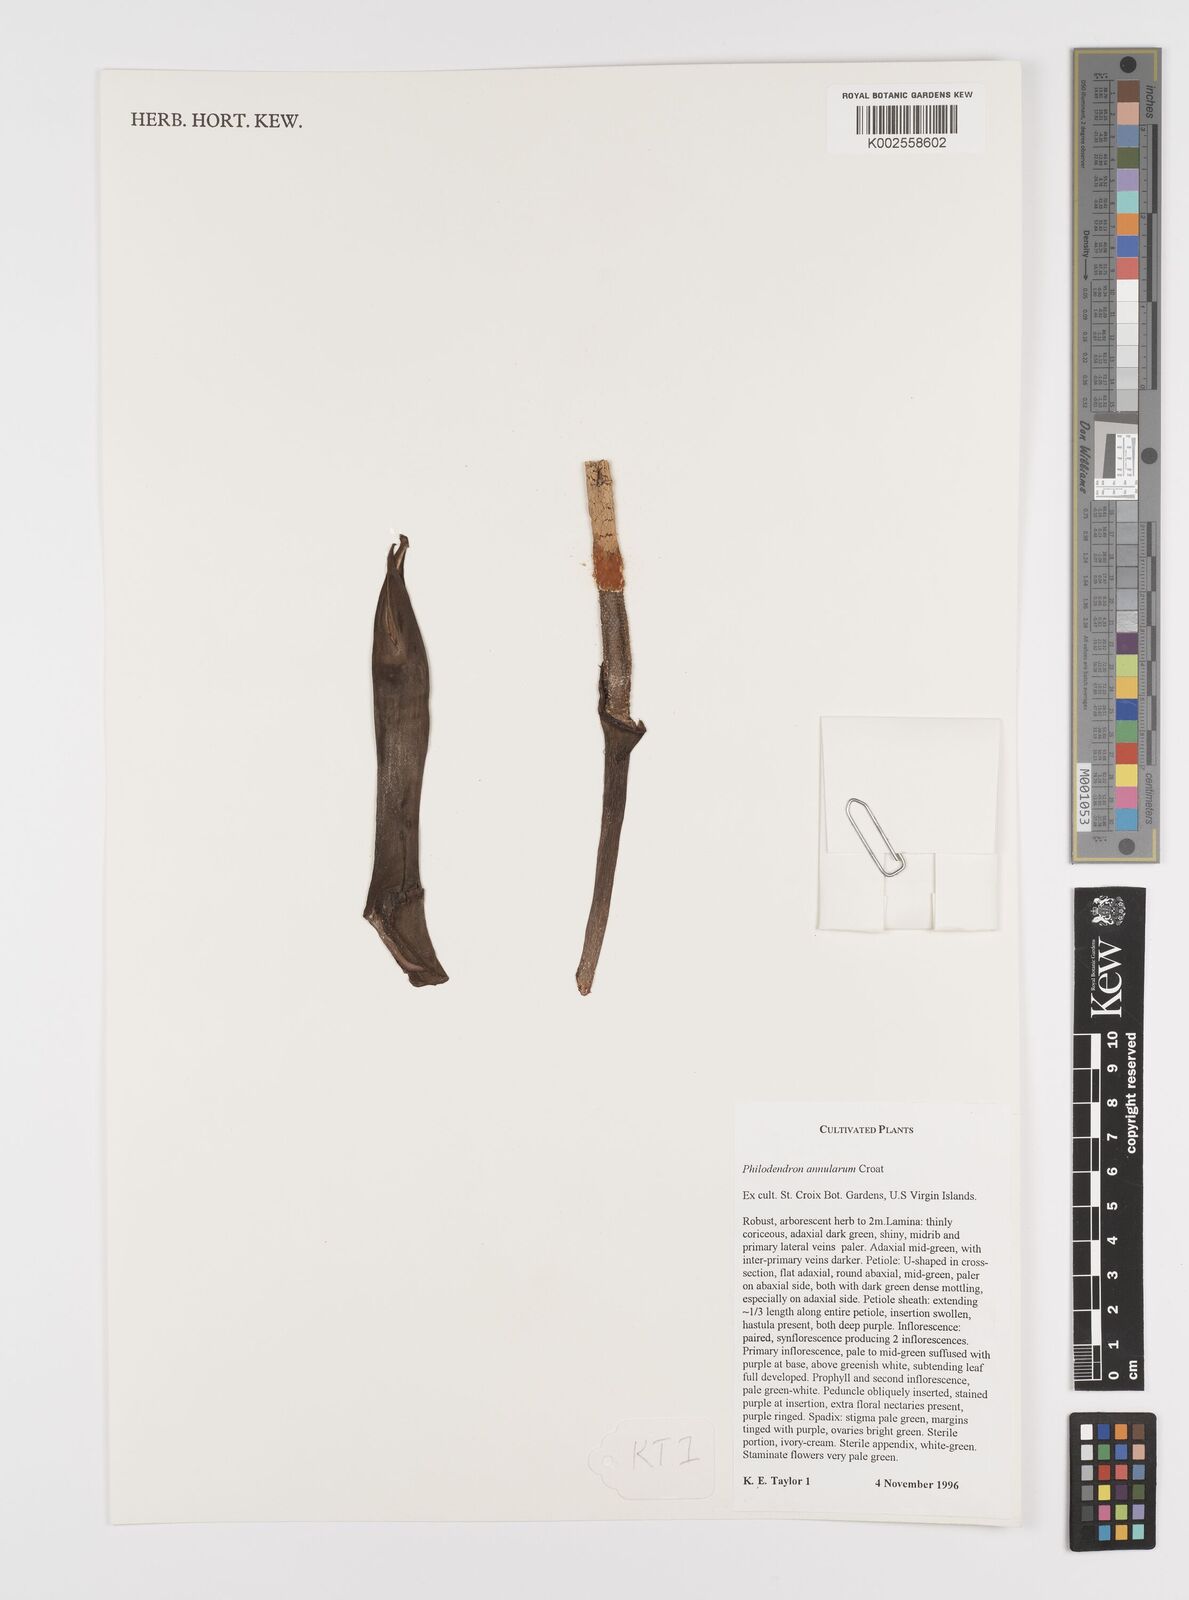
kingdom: Plantae
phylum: Tracheophyta
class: Liliopsida
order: Alismatales
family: Araceae
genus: Philodendron
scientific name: Philodendron annulatum
